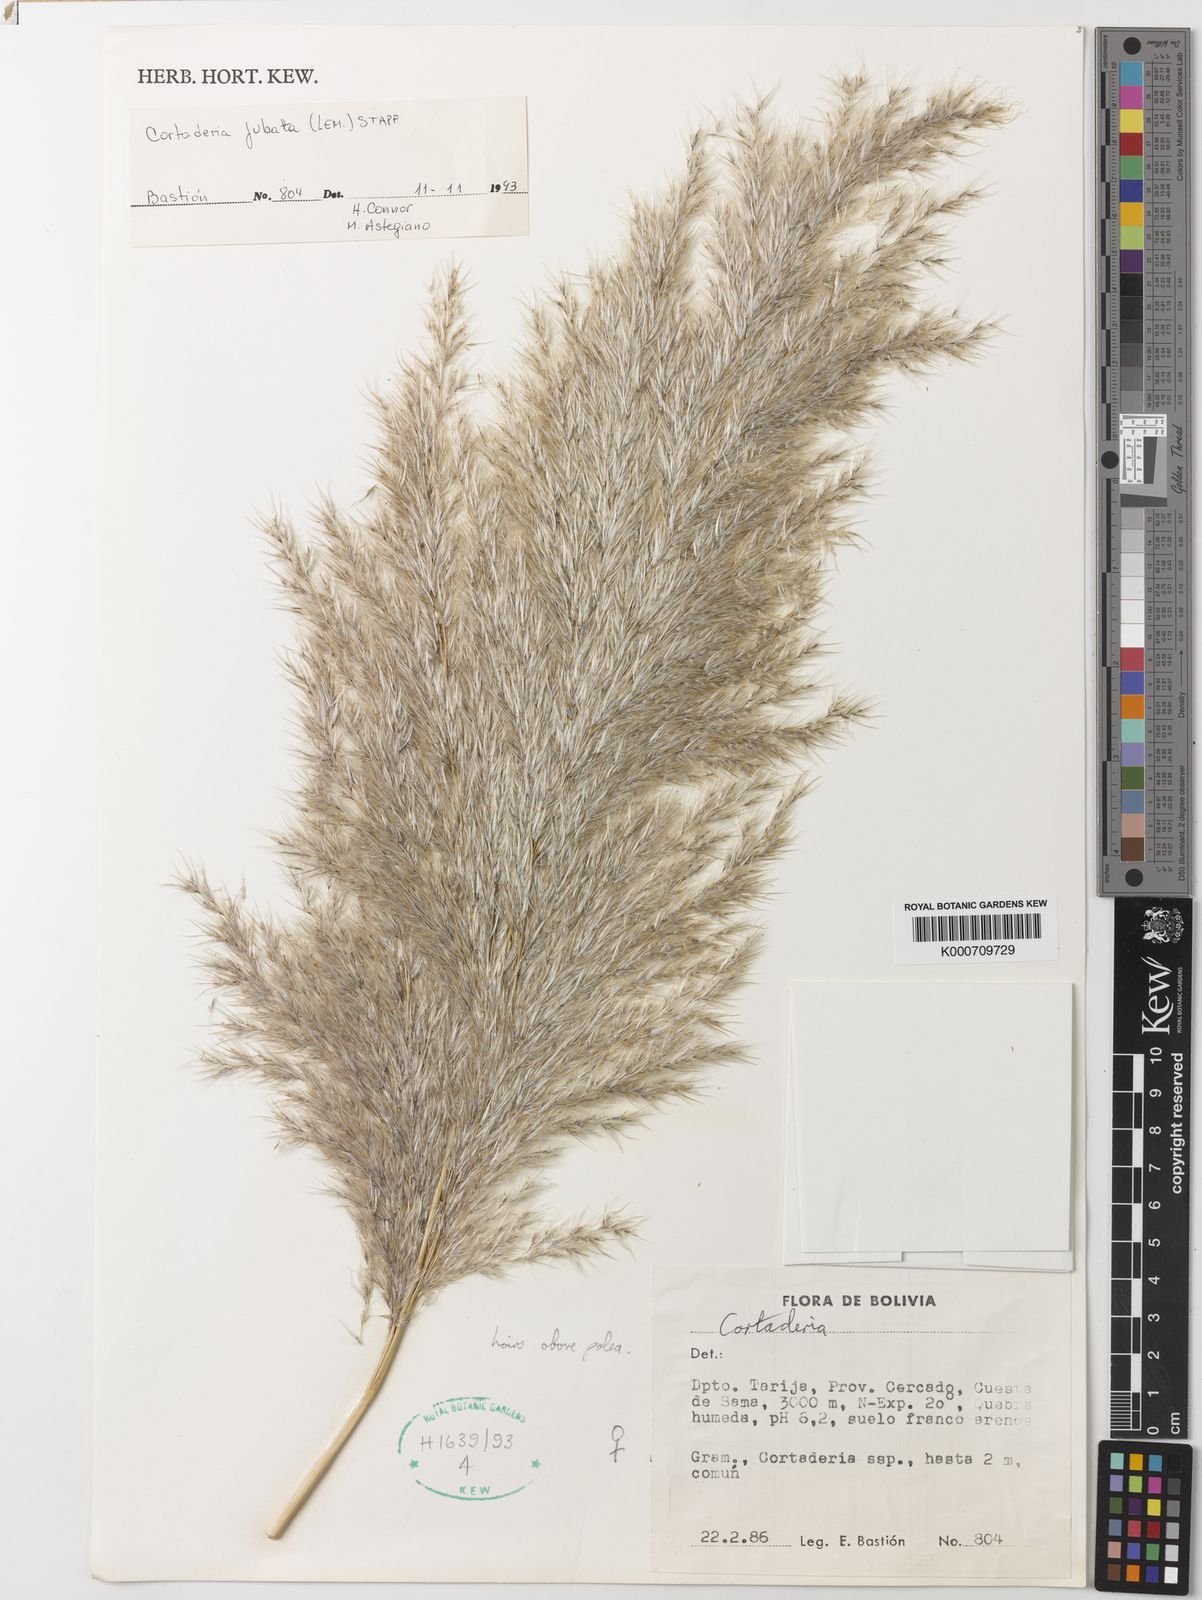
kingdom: Plantae
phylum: Tracheophyta
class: Liliopsida
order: Poales
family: Poaceae
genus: Cortaderia
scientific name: Cortaderia jubata
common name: Purple pampas grass
